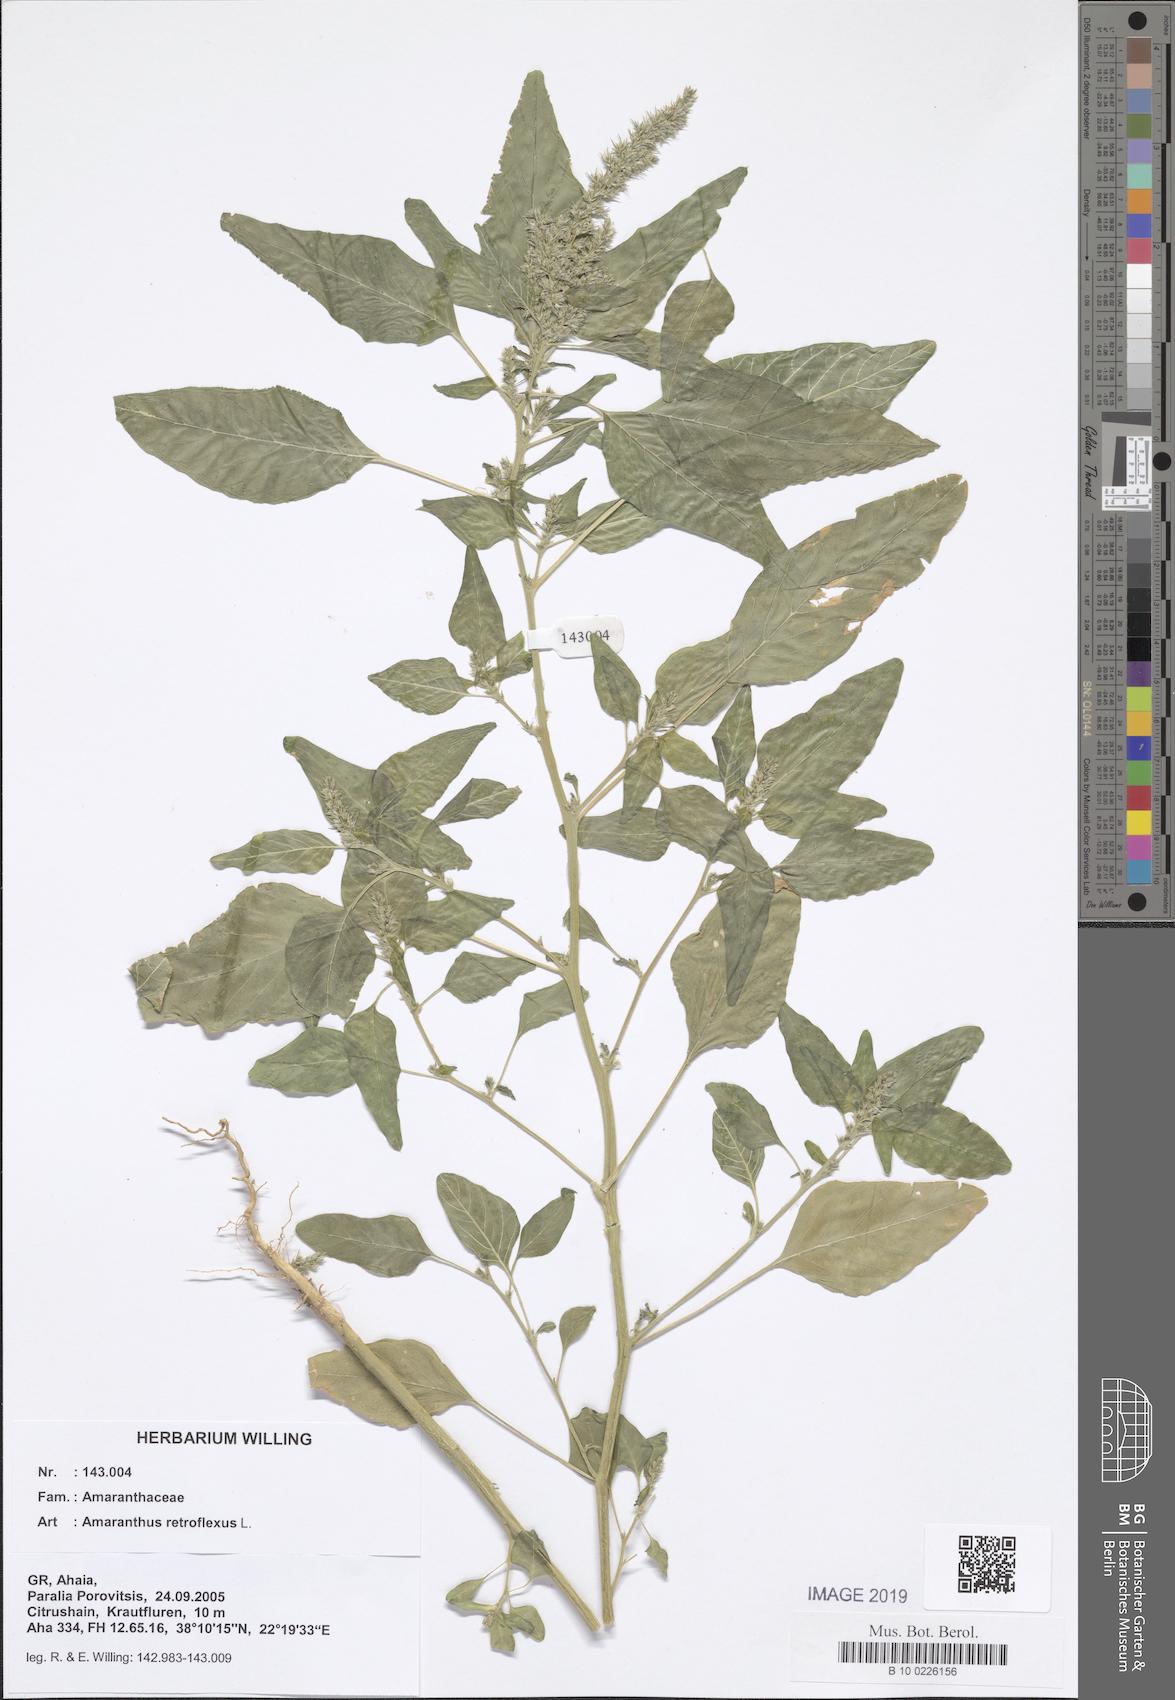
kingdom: Plantae
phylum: Tracheophyta
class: Magnoliopsida
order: Caryophyllales
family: Amaranthaceae
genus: Amaranthus
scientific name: Amaranthus retroflexus
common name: Redroot amaranth
